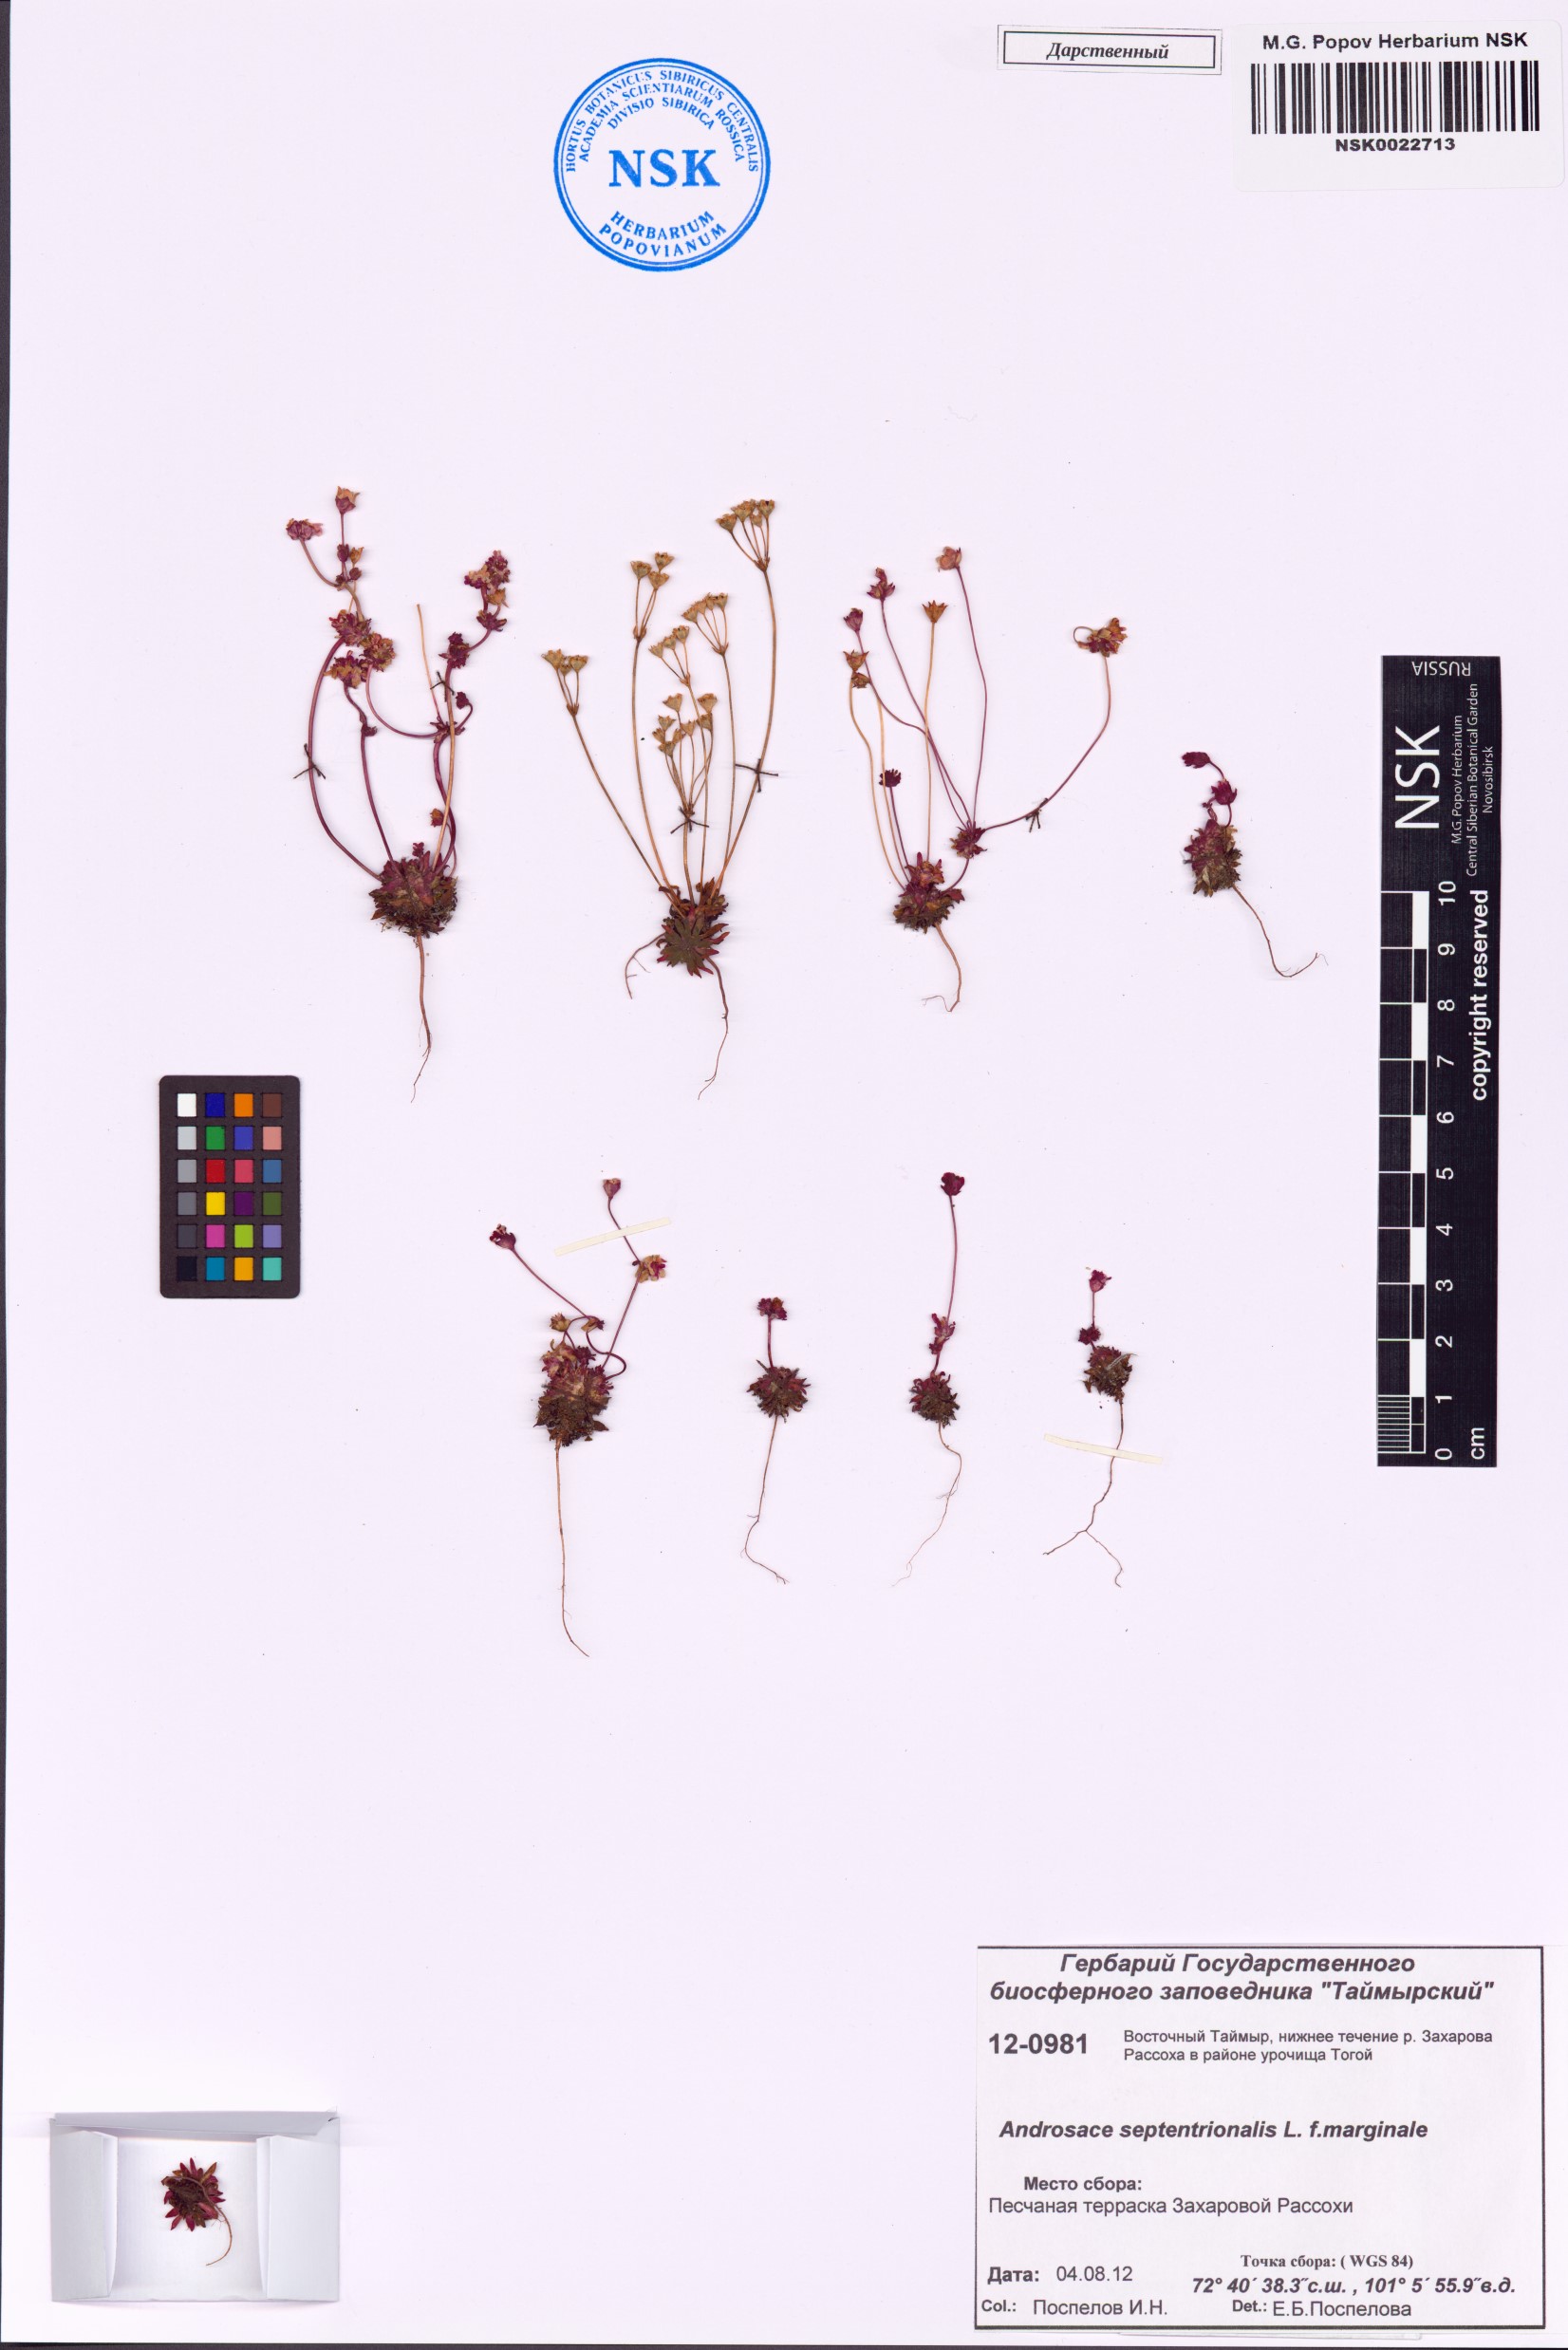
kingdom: Plantae
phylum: Tracheophyta
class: Magnoliopsida
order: Ericales
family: Primulaceae
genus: Androsace
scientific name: Androsace septentrionalis
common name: Hairy northern fairy-candelabra
